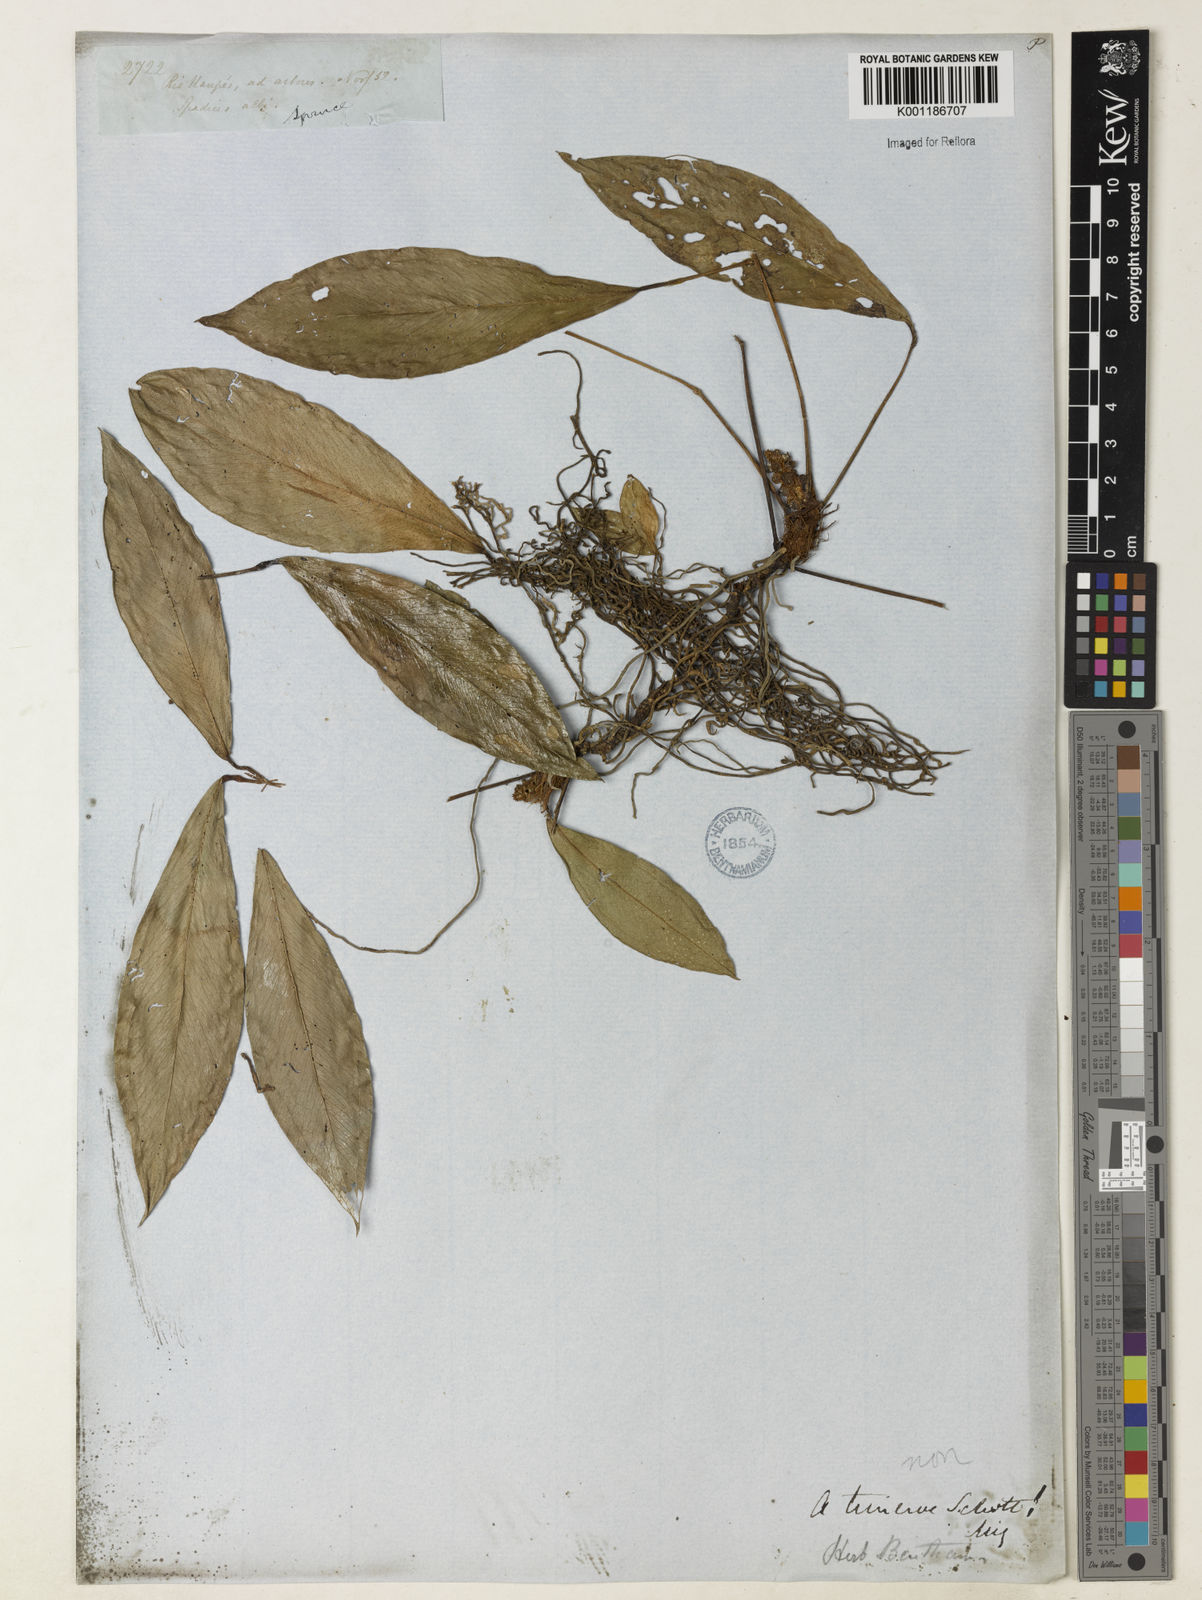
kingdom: Plantae
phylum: Tracheophyta
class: Liliopsida
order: Alismatales
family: Araceae
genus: Anthurium
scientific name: Anthurium obtusum
